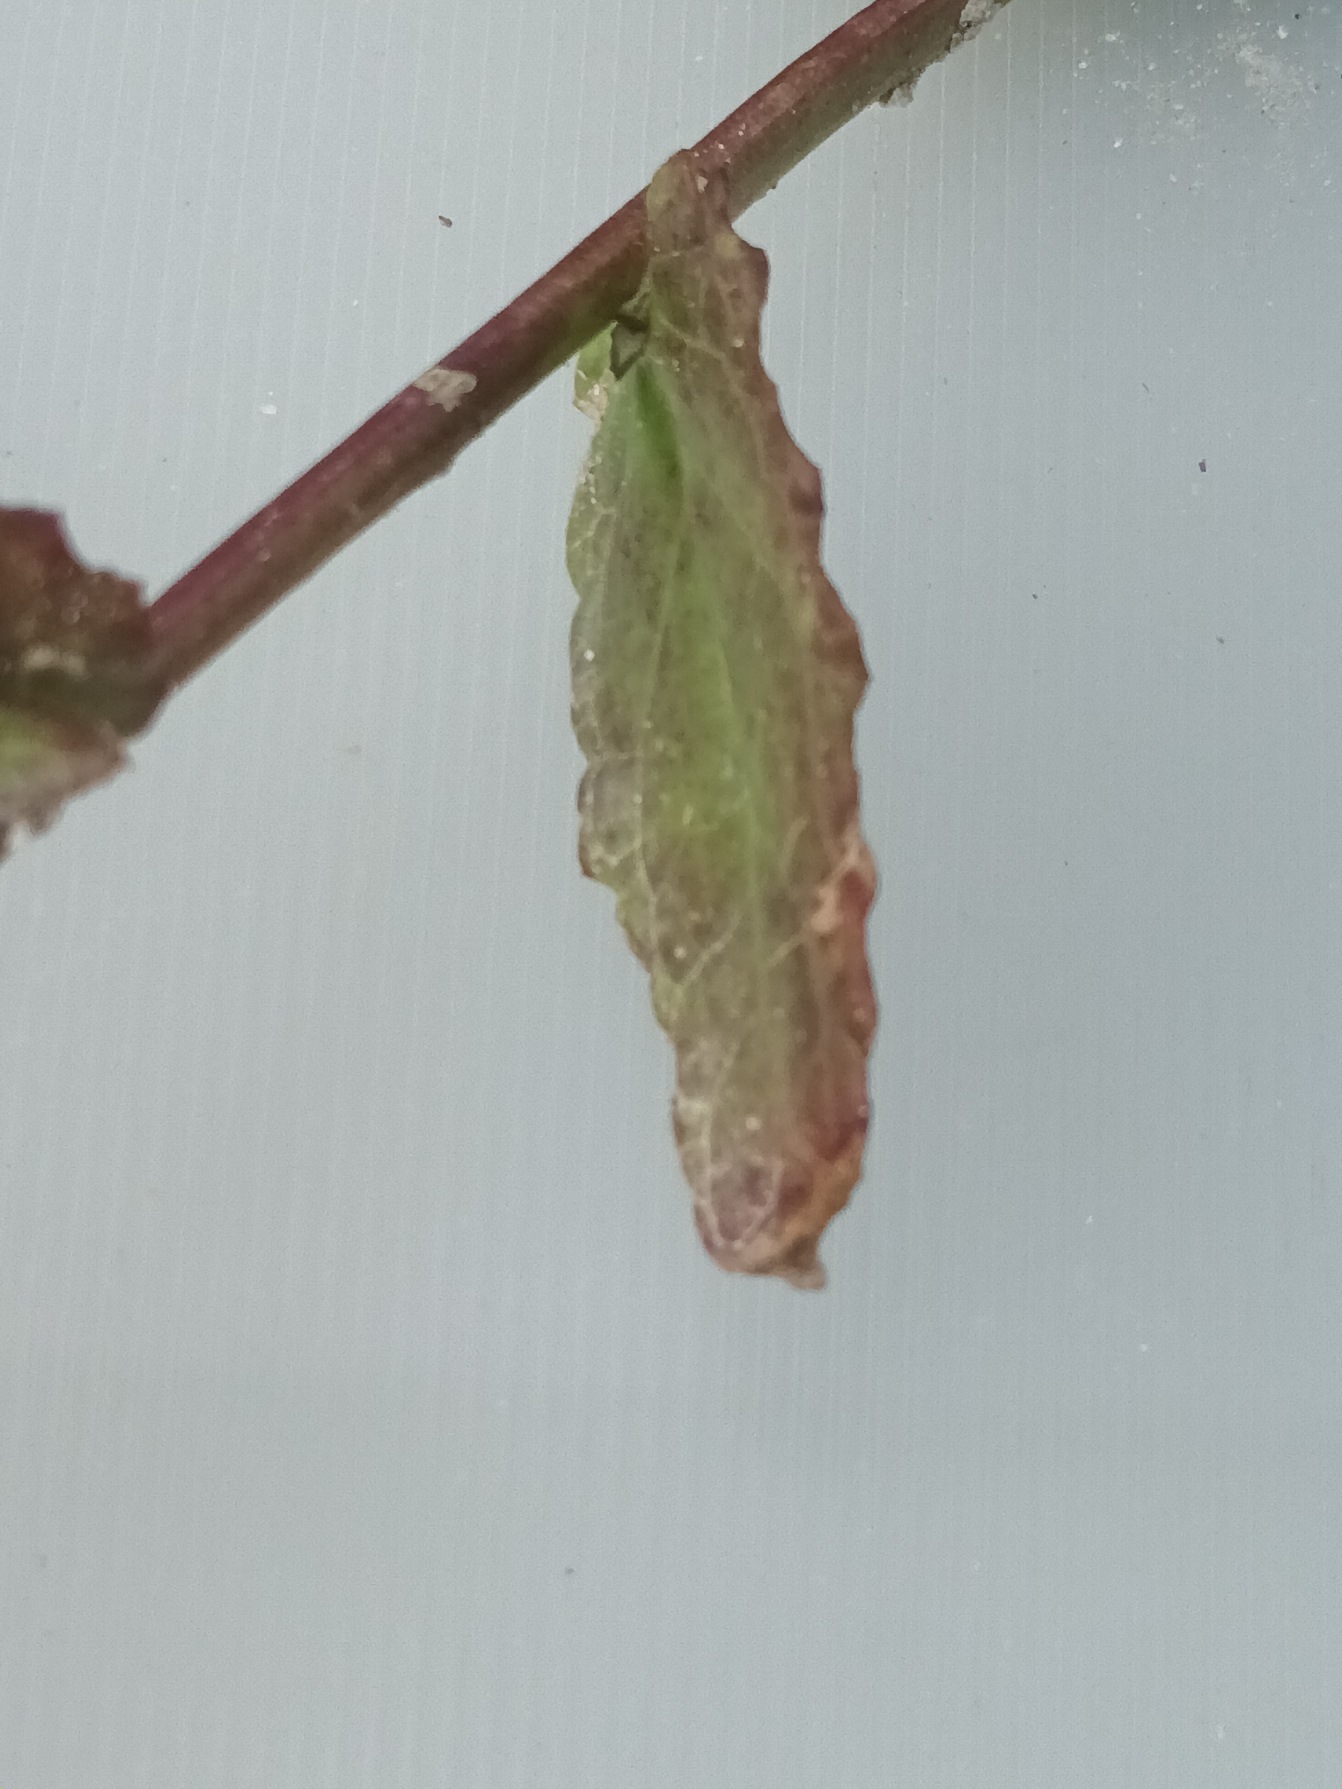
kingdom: Plantae
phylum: Tracheophyta
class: Magnoliopsida
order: Lamiales
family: Scrophulariaceae
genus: Verbascum
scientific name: Verbascum phoeniceum
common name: Purpur-kongelys
